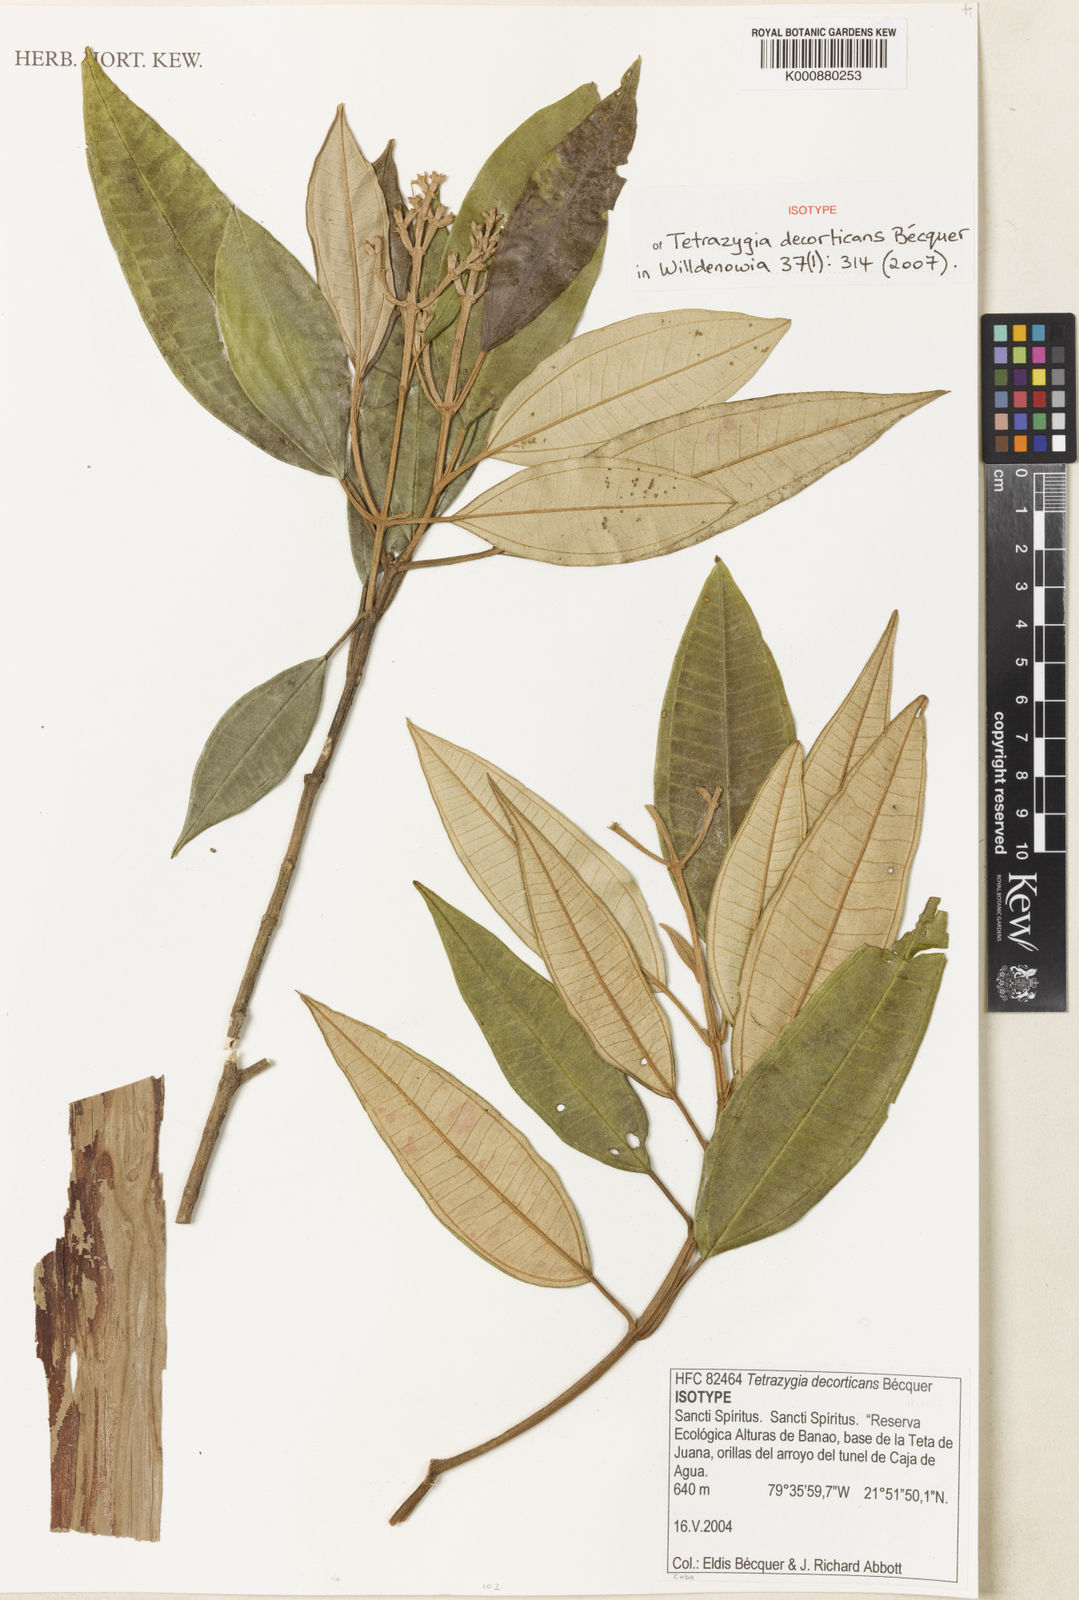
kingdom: Plantae
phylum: Tracheophyta
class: Magnoliopsida
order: Myrtales
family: Melastomataceae
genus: Miconia
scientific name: Miconia
